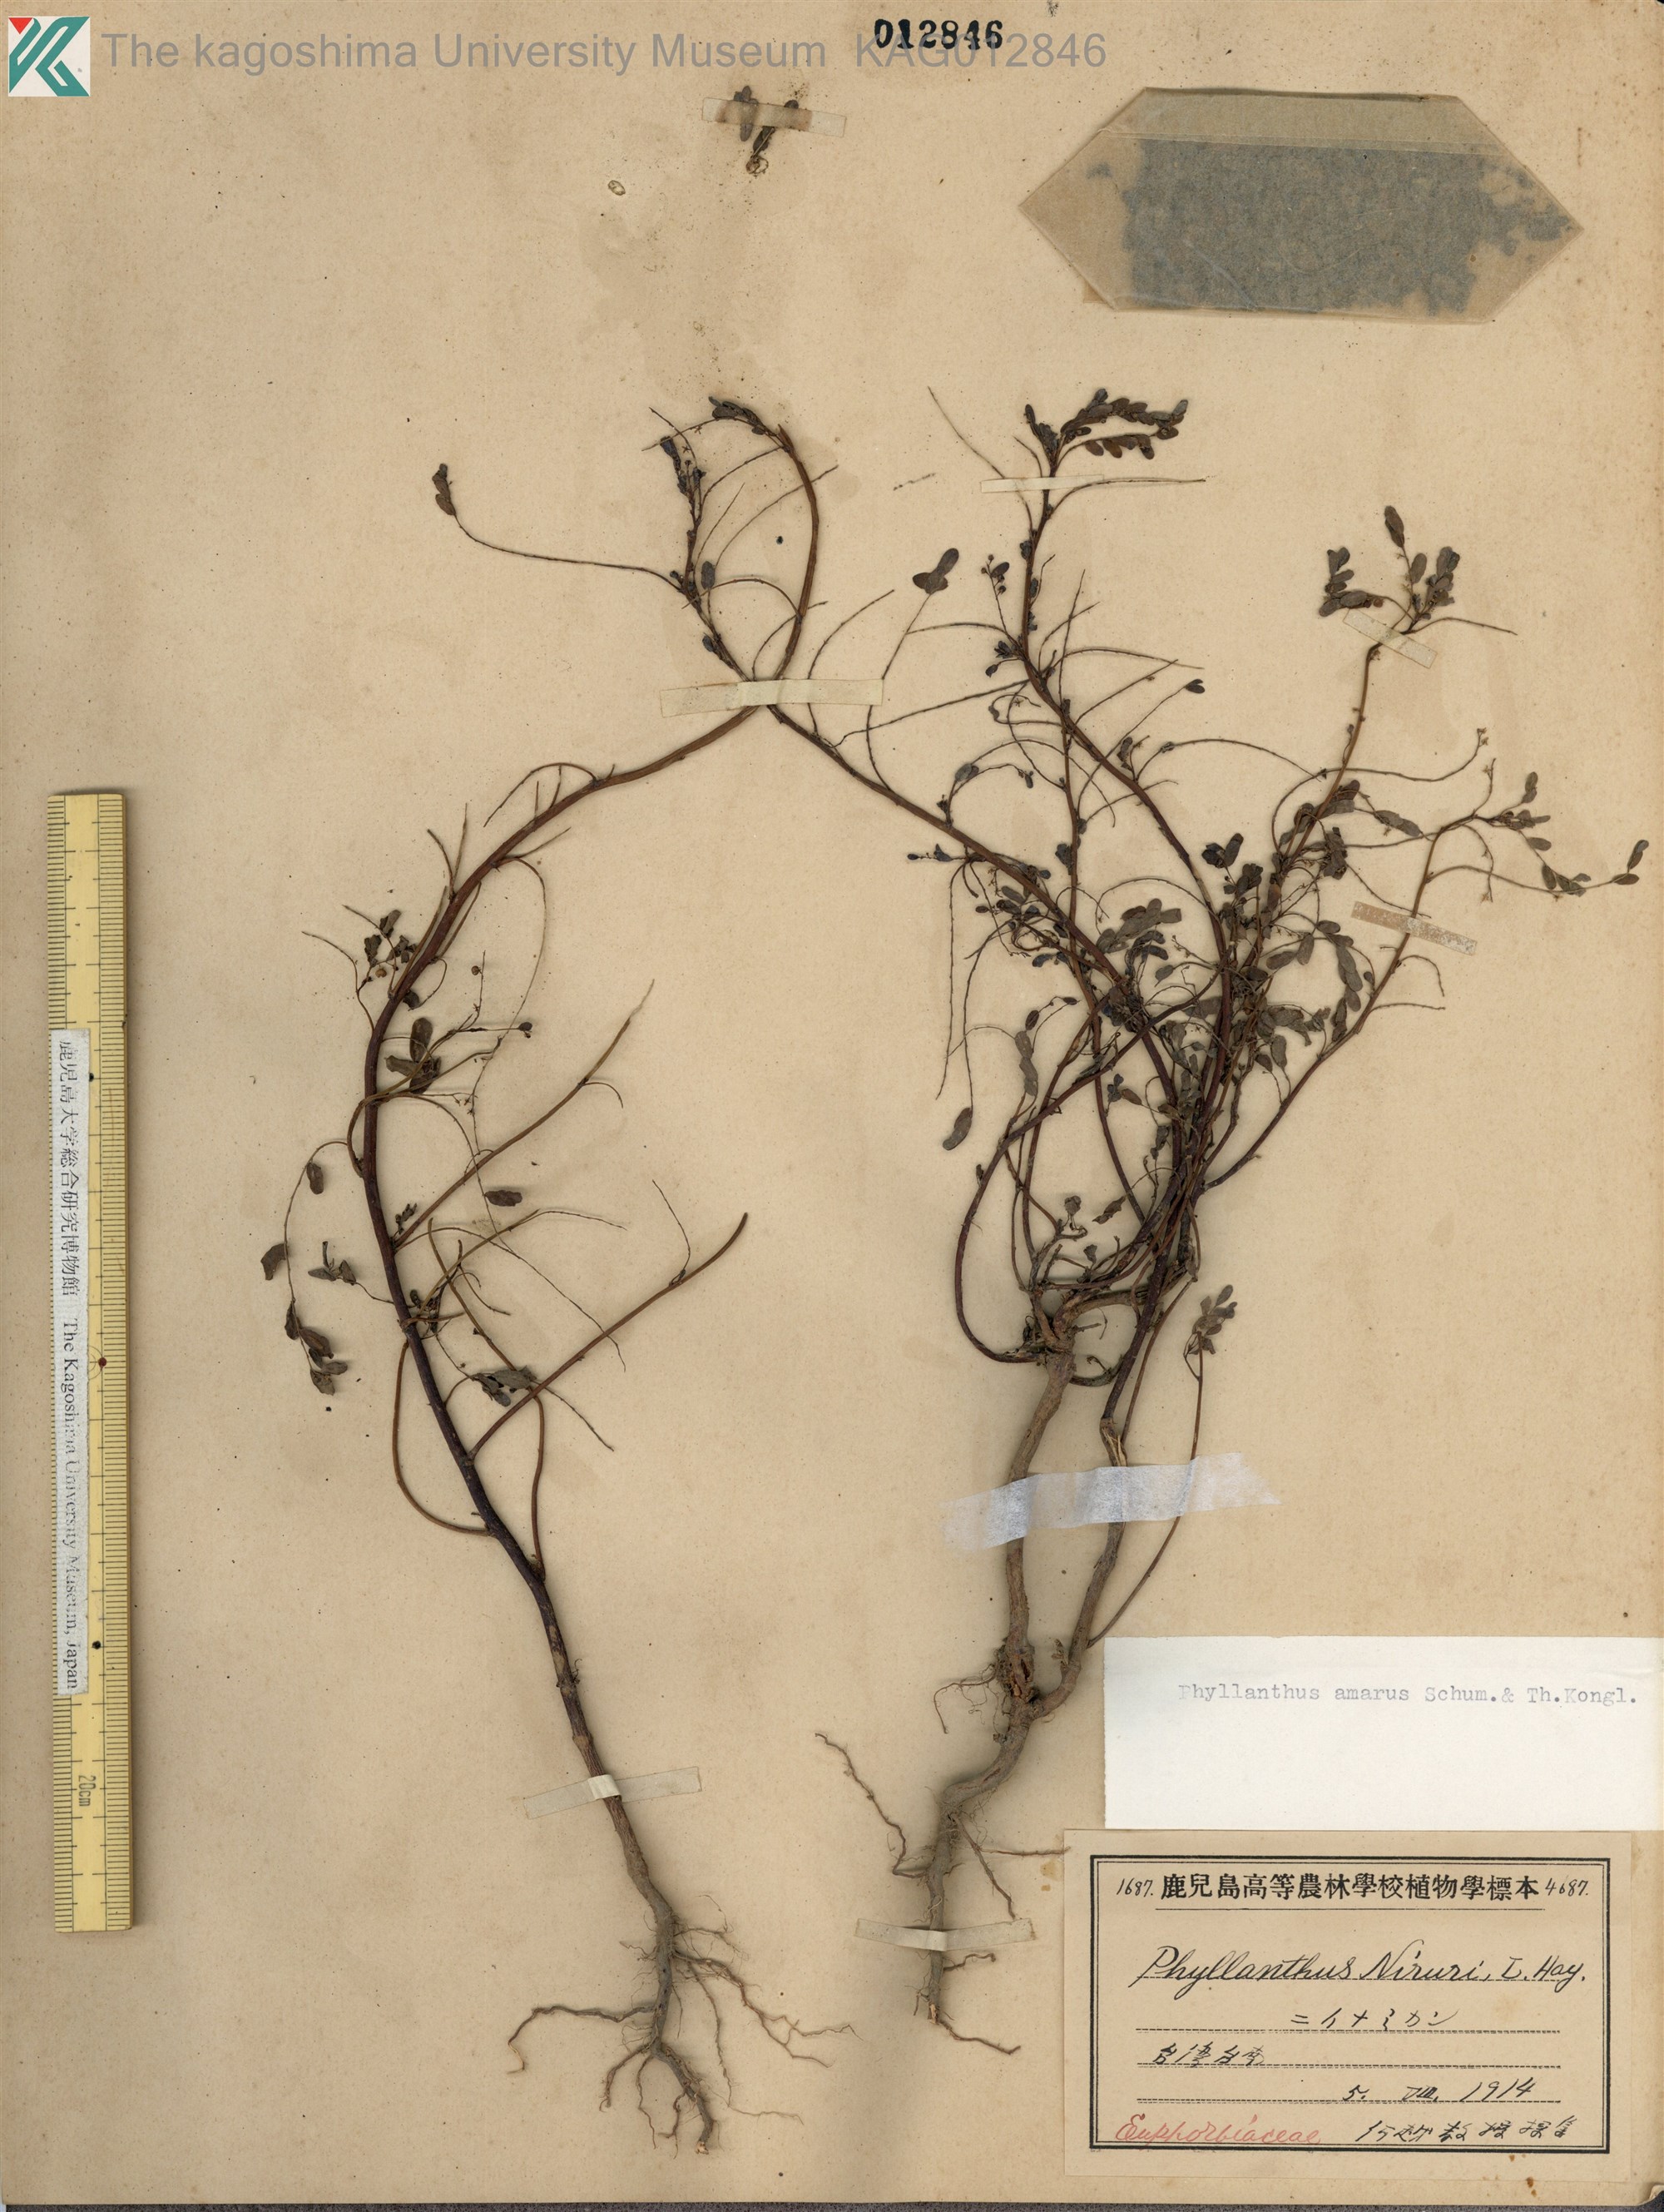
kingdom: Plantae
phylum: Tracheophyta
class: Magnoliopsida
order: Malpighiales
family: Phyllanthaceae
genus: Phyllanthus
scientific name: Phyllanthus amarus
